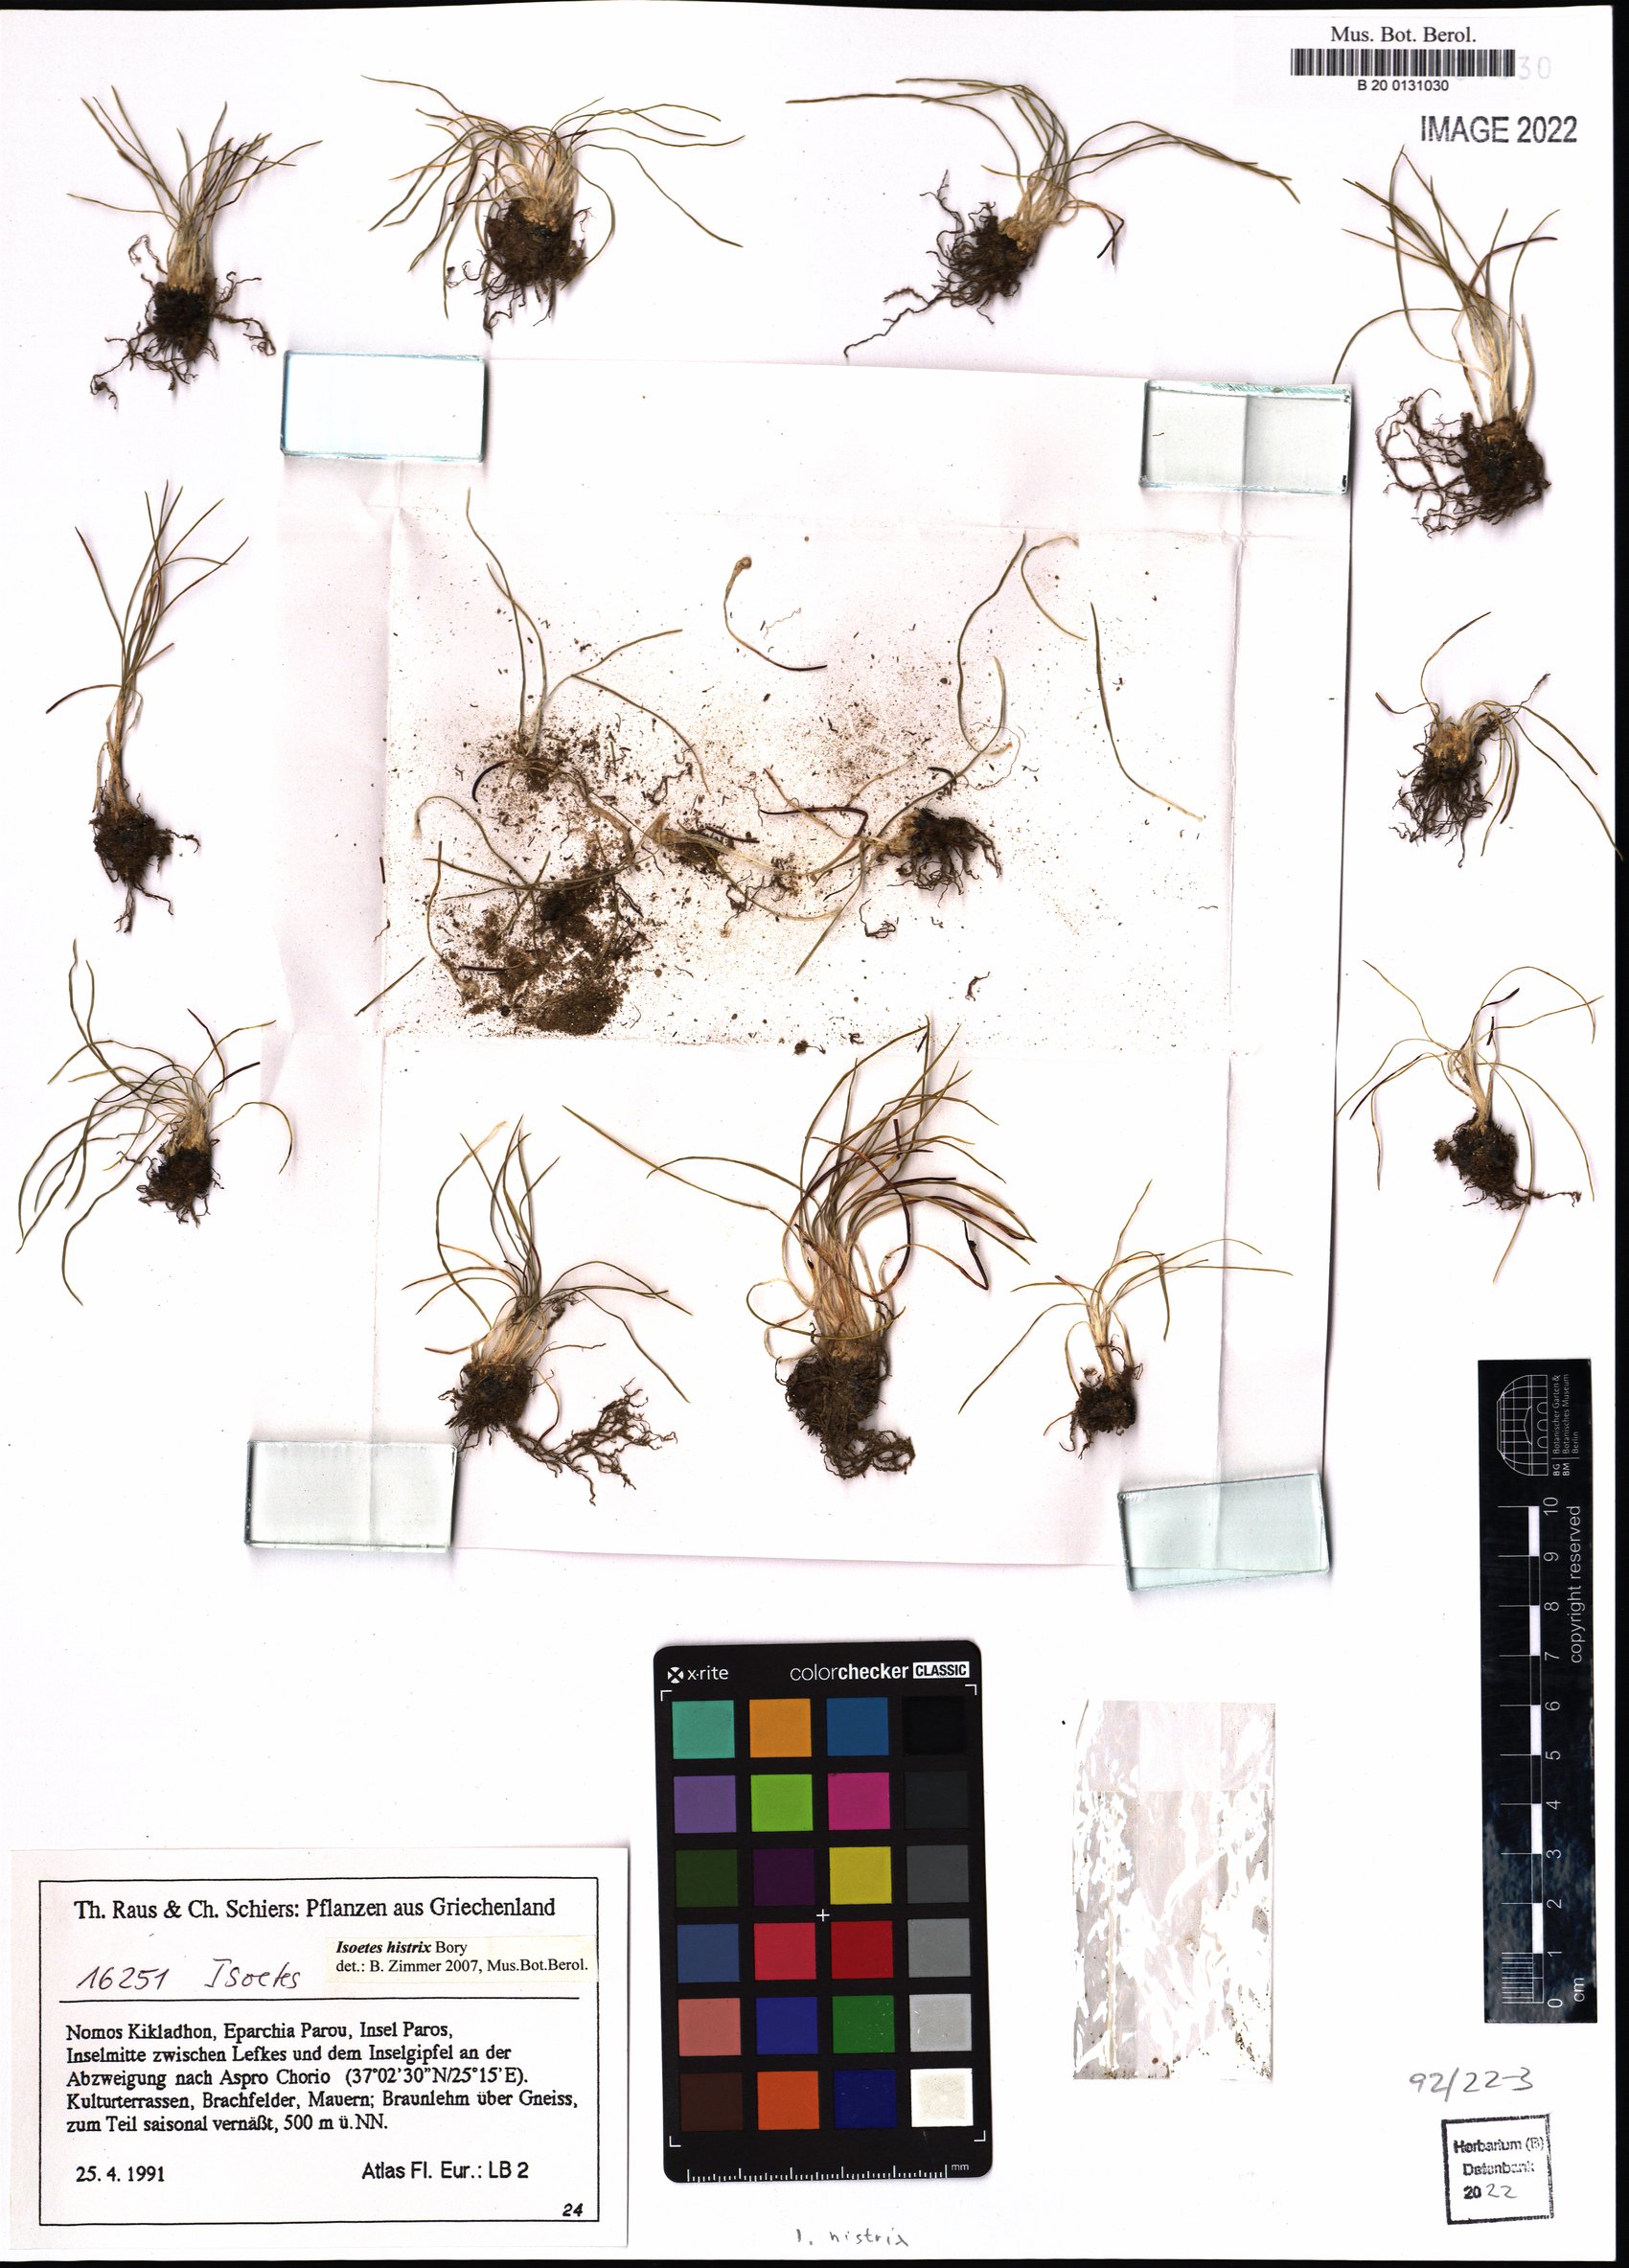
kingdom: Plantae
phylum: Tracheophyta
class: Lycopodiopsida
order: Isoetales
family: Isoetaceae
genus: Isoetes
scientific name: Isoetes histrix
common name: Land quillwort
